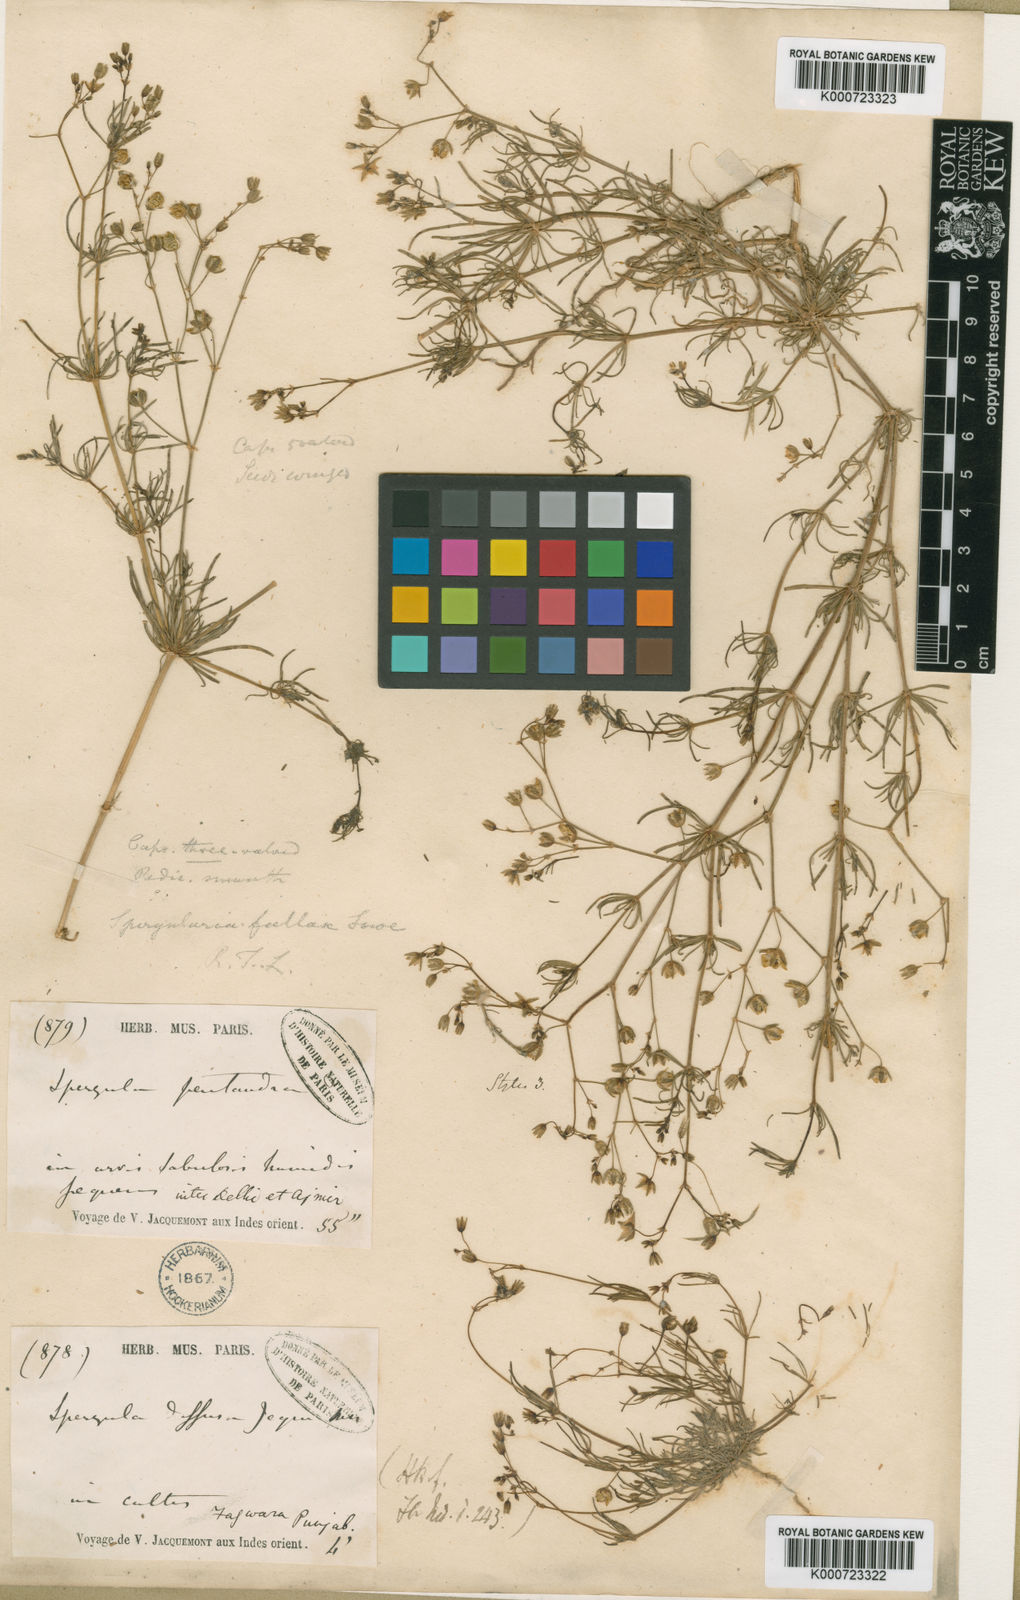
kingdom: Plantae
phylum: Tracheophyta
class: Magnoliopsida
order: Caryophyllales
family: Caryophyllaceae
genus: Spergularia
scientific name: Spergularia flaccida
